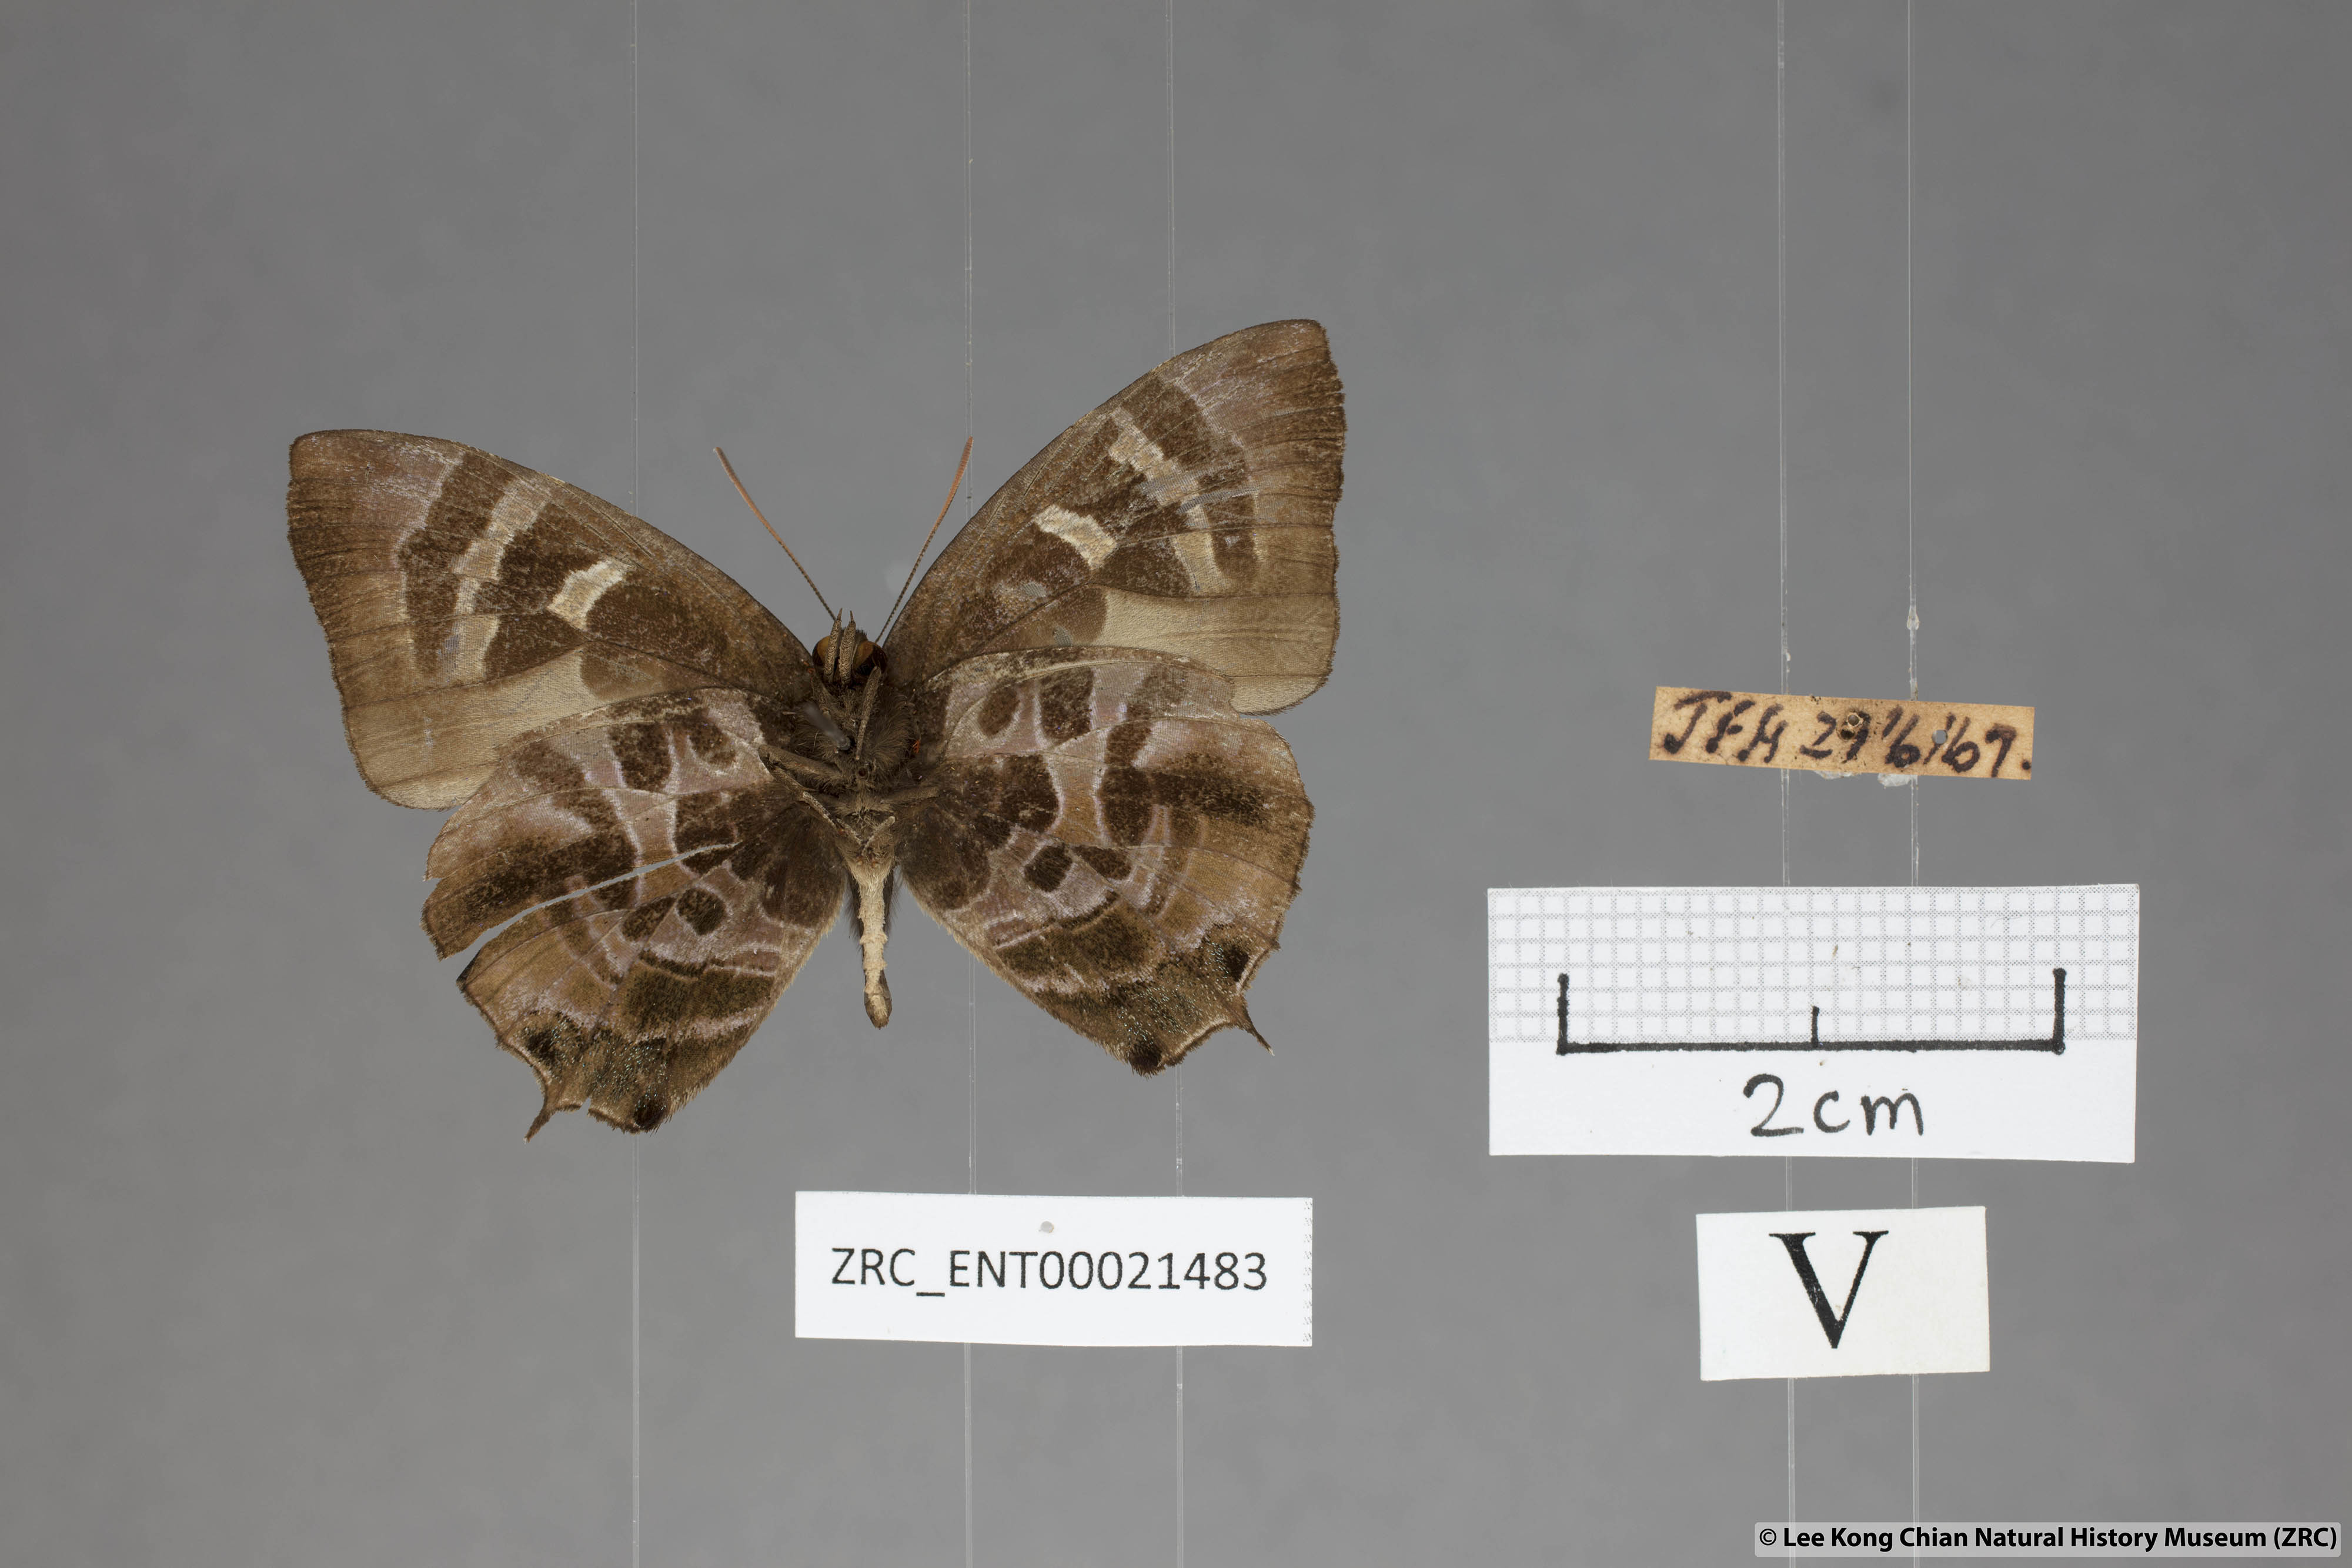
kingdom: Animalia
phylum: Arthropoda
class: Insecta
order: Lepidoptera
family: Lycaenidae
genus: Flos
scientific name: Flos
